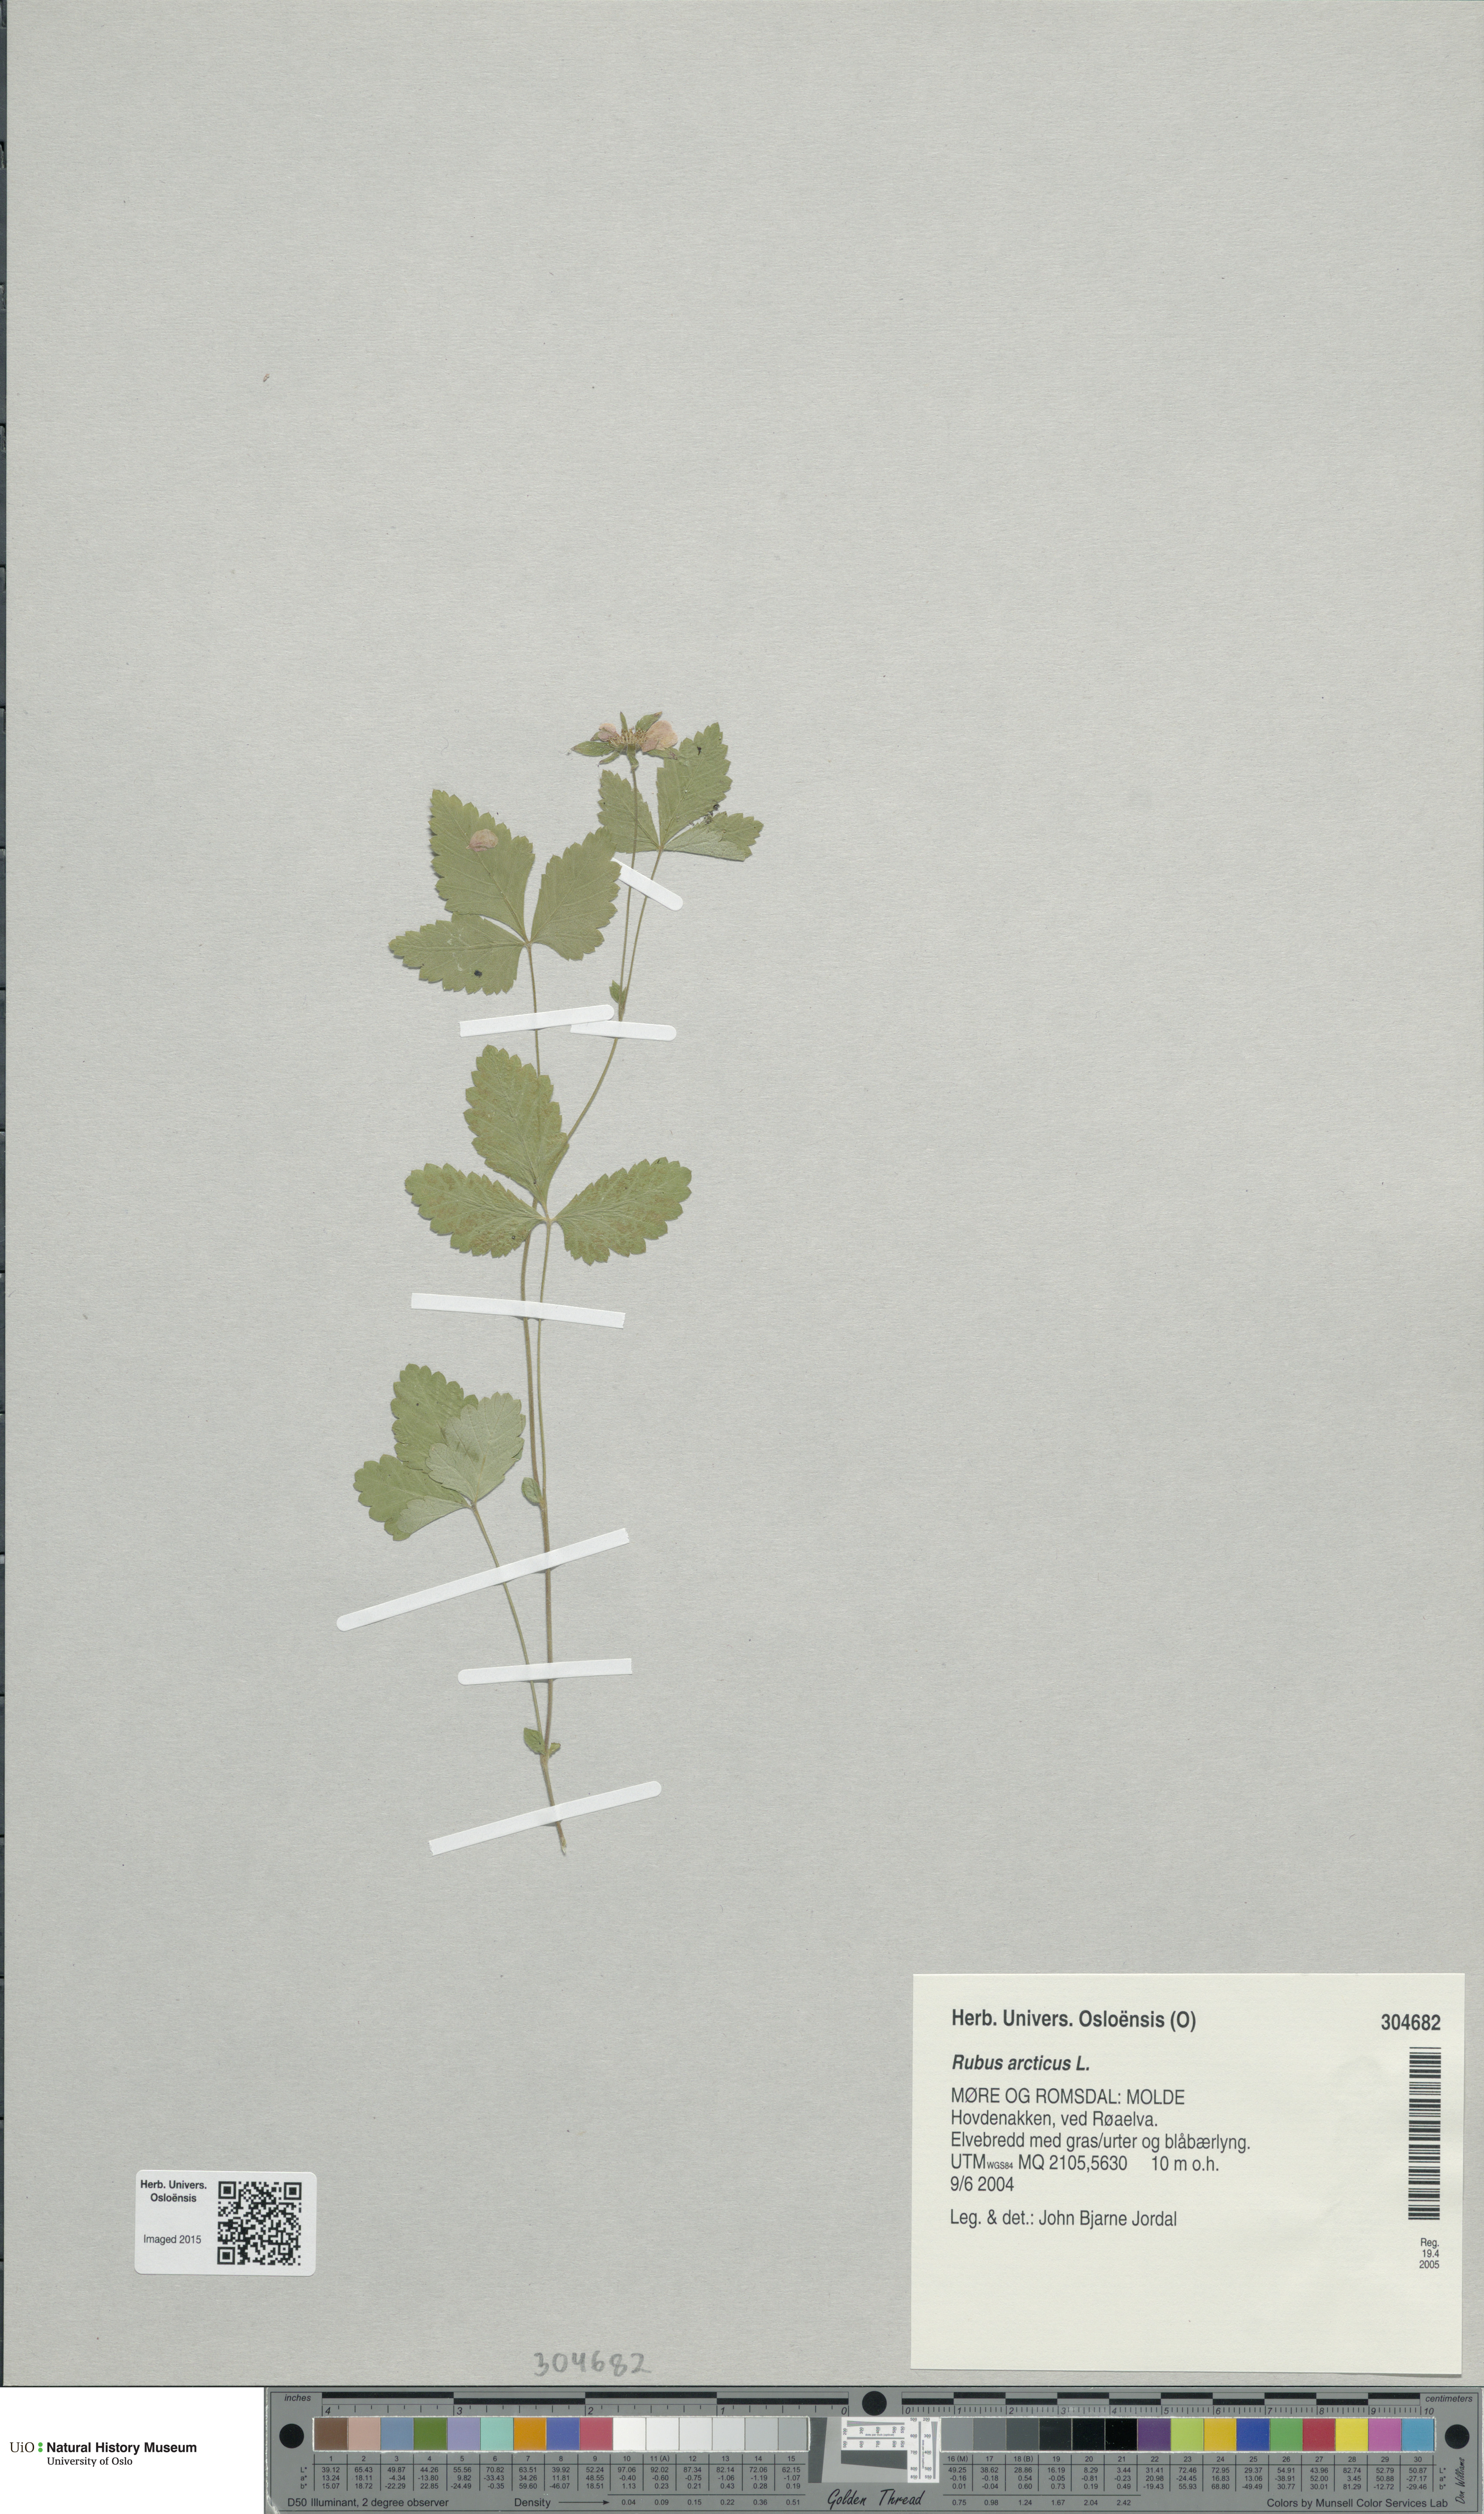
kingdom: Plantae
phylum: Tracheophyta
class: Magnoliopsida
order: Rosales
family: Rosaceae
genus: Rubus
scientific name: Rubus arcticus
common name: Arctic bramble
